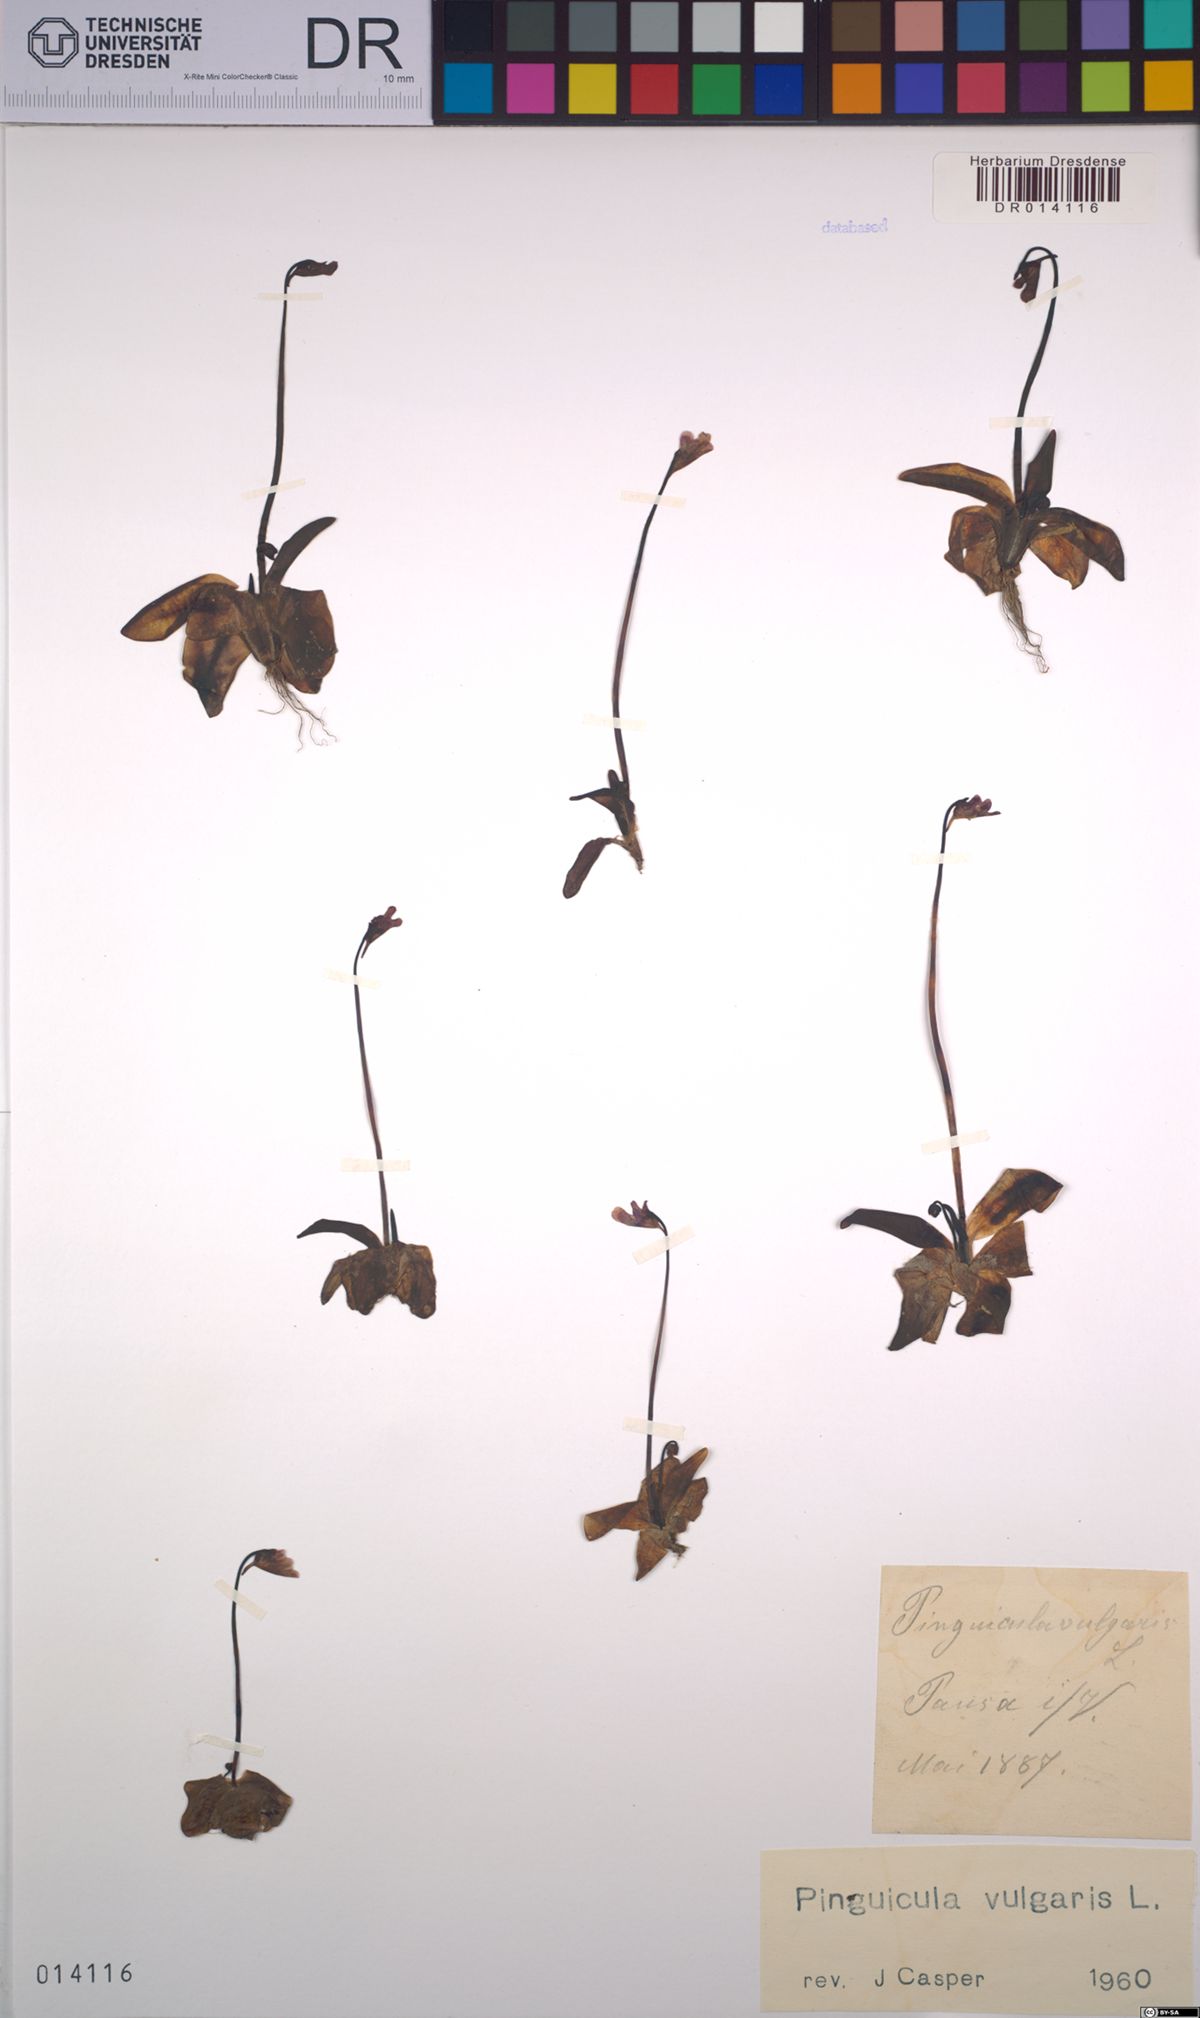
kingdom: Plantae
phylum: Tracheophyta
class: Magnoliopsida
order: Lamiales
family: Lentibulariaceae
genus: Pinguicula
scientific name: Pinguicula vulgaris
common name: Common butterwort
